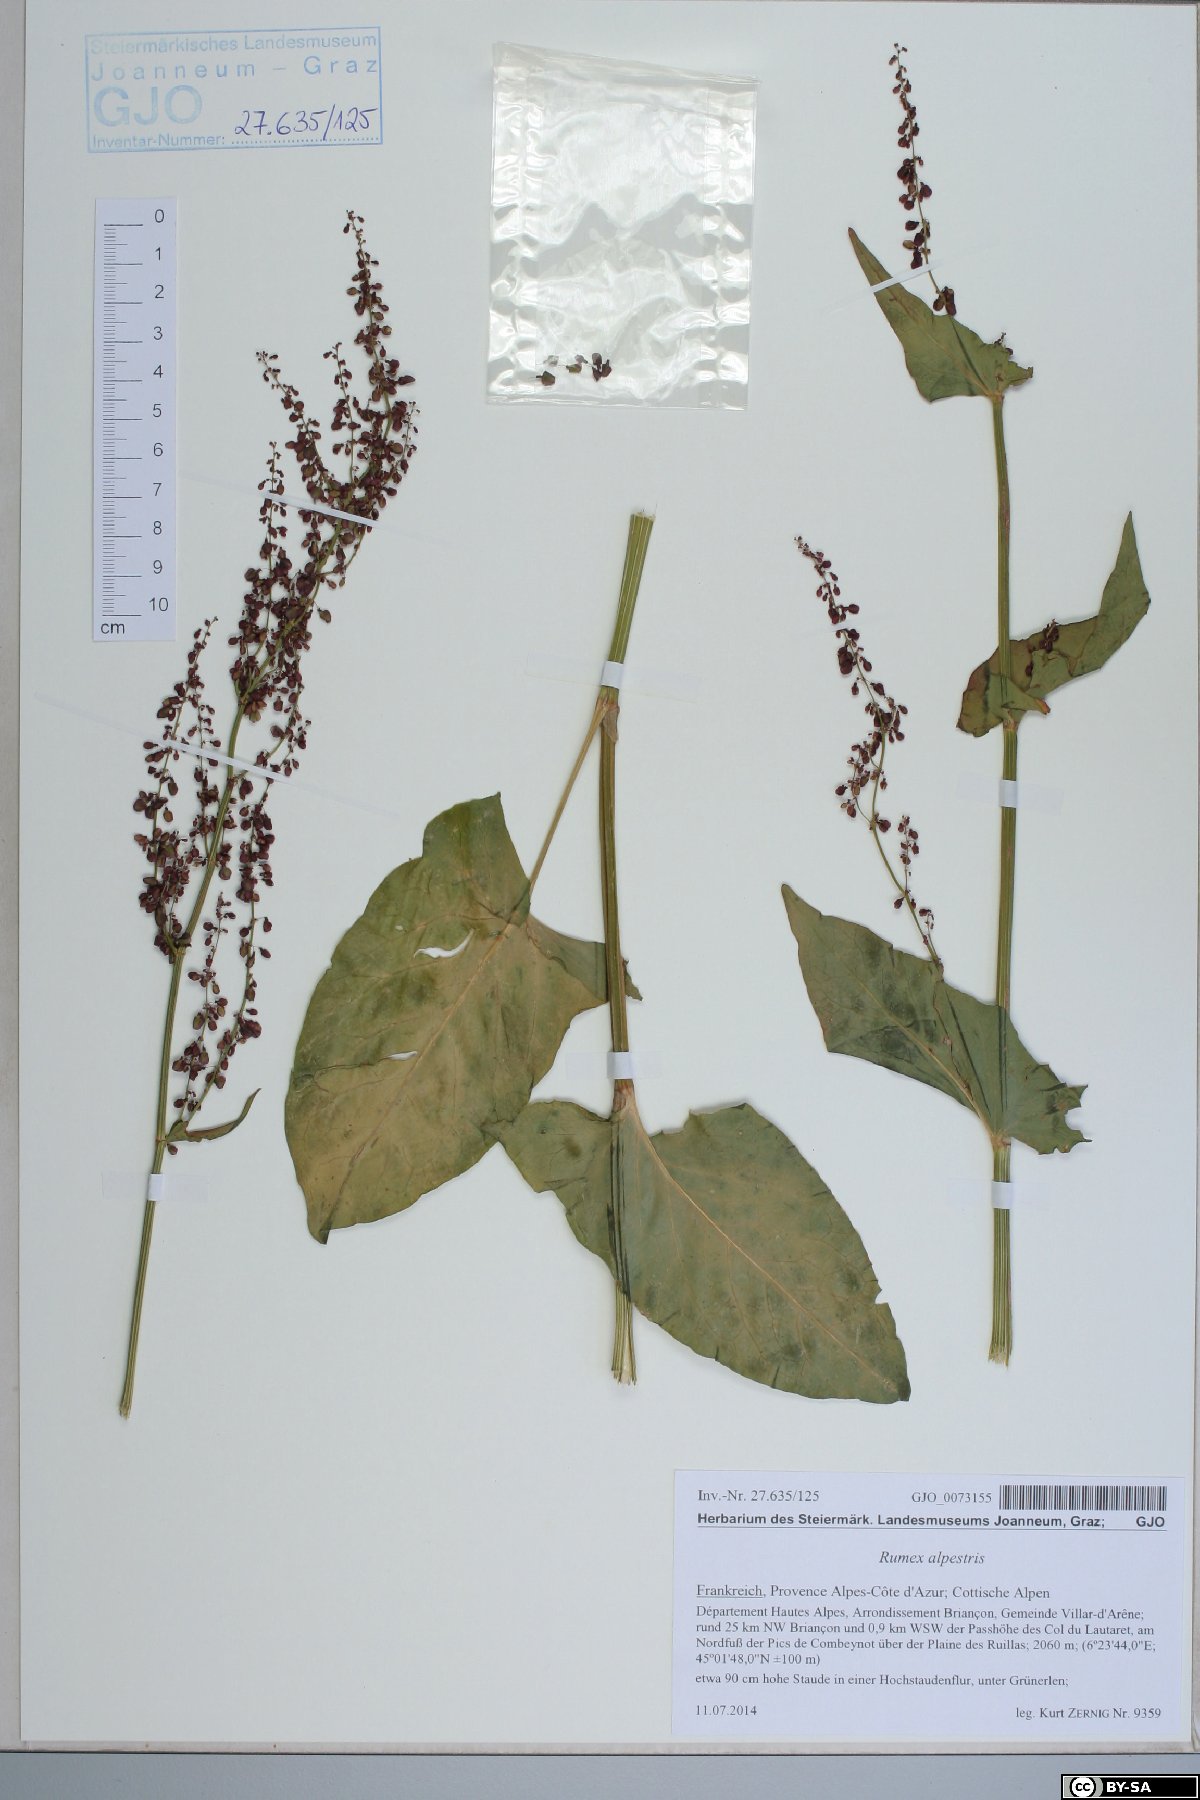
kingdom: Plantae
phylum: Tracheophyta
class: Magnoliopsida
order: Caryophyllales
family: Polygonaceae
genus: Rumex
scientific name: Rumex scutatus
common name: French sorrel
